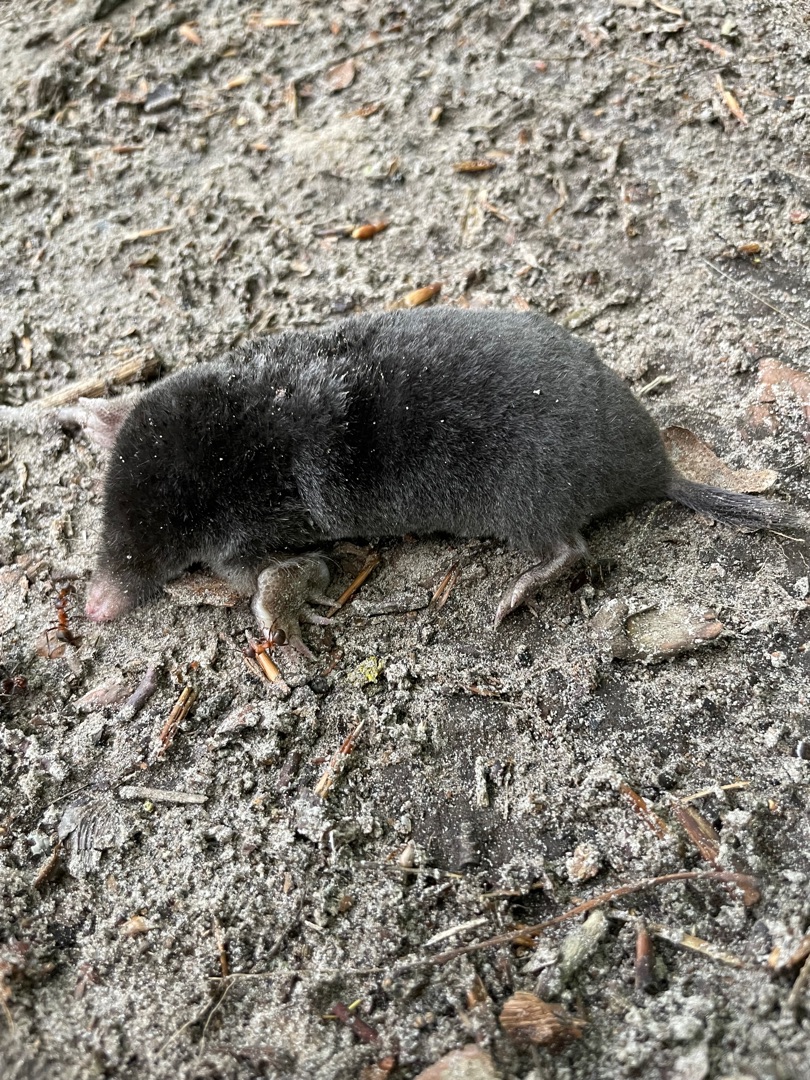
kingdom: Animalia
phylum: Chordata
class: Mammalia
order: Soricomorpha
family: Talpidae
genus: Talpa
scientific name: Talpa europaea
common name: Muldvarp
